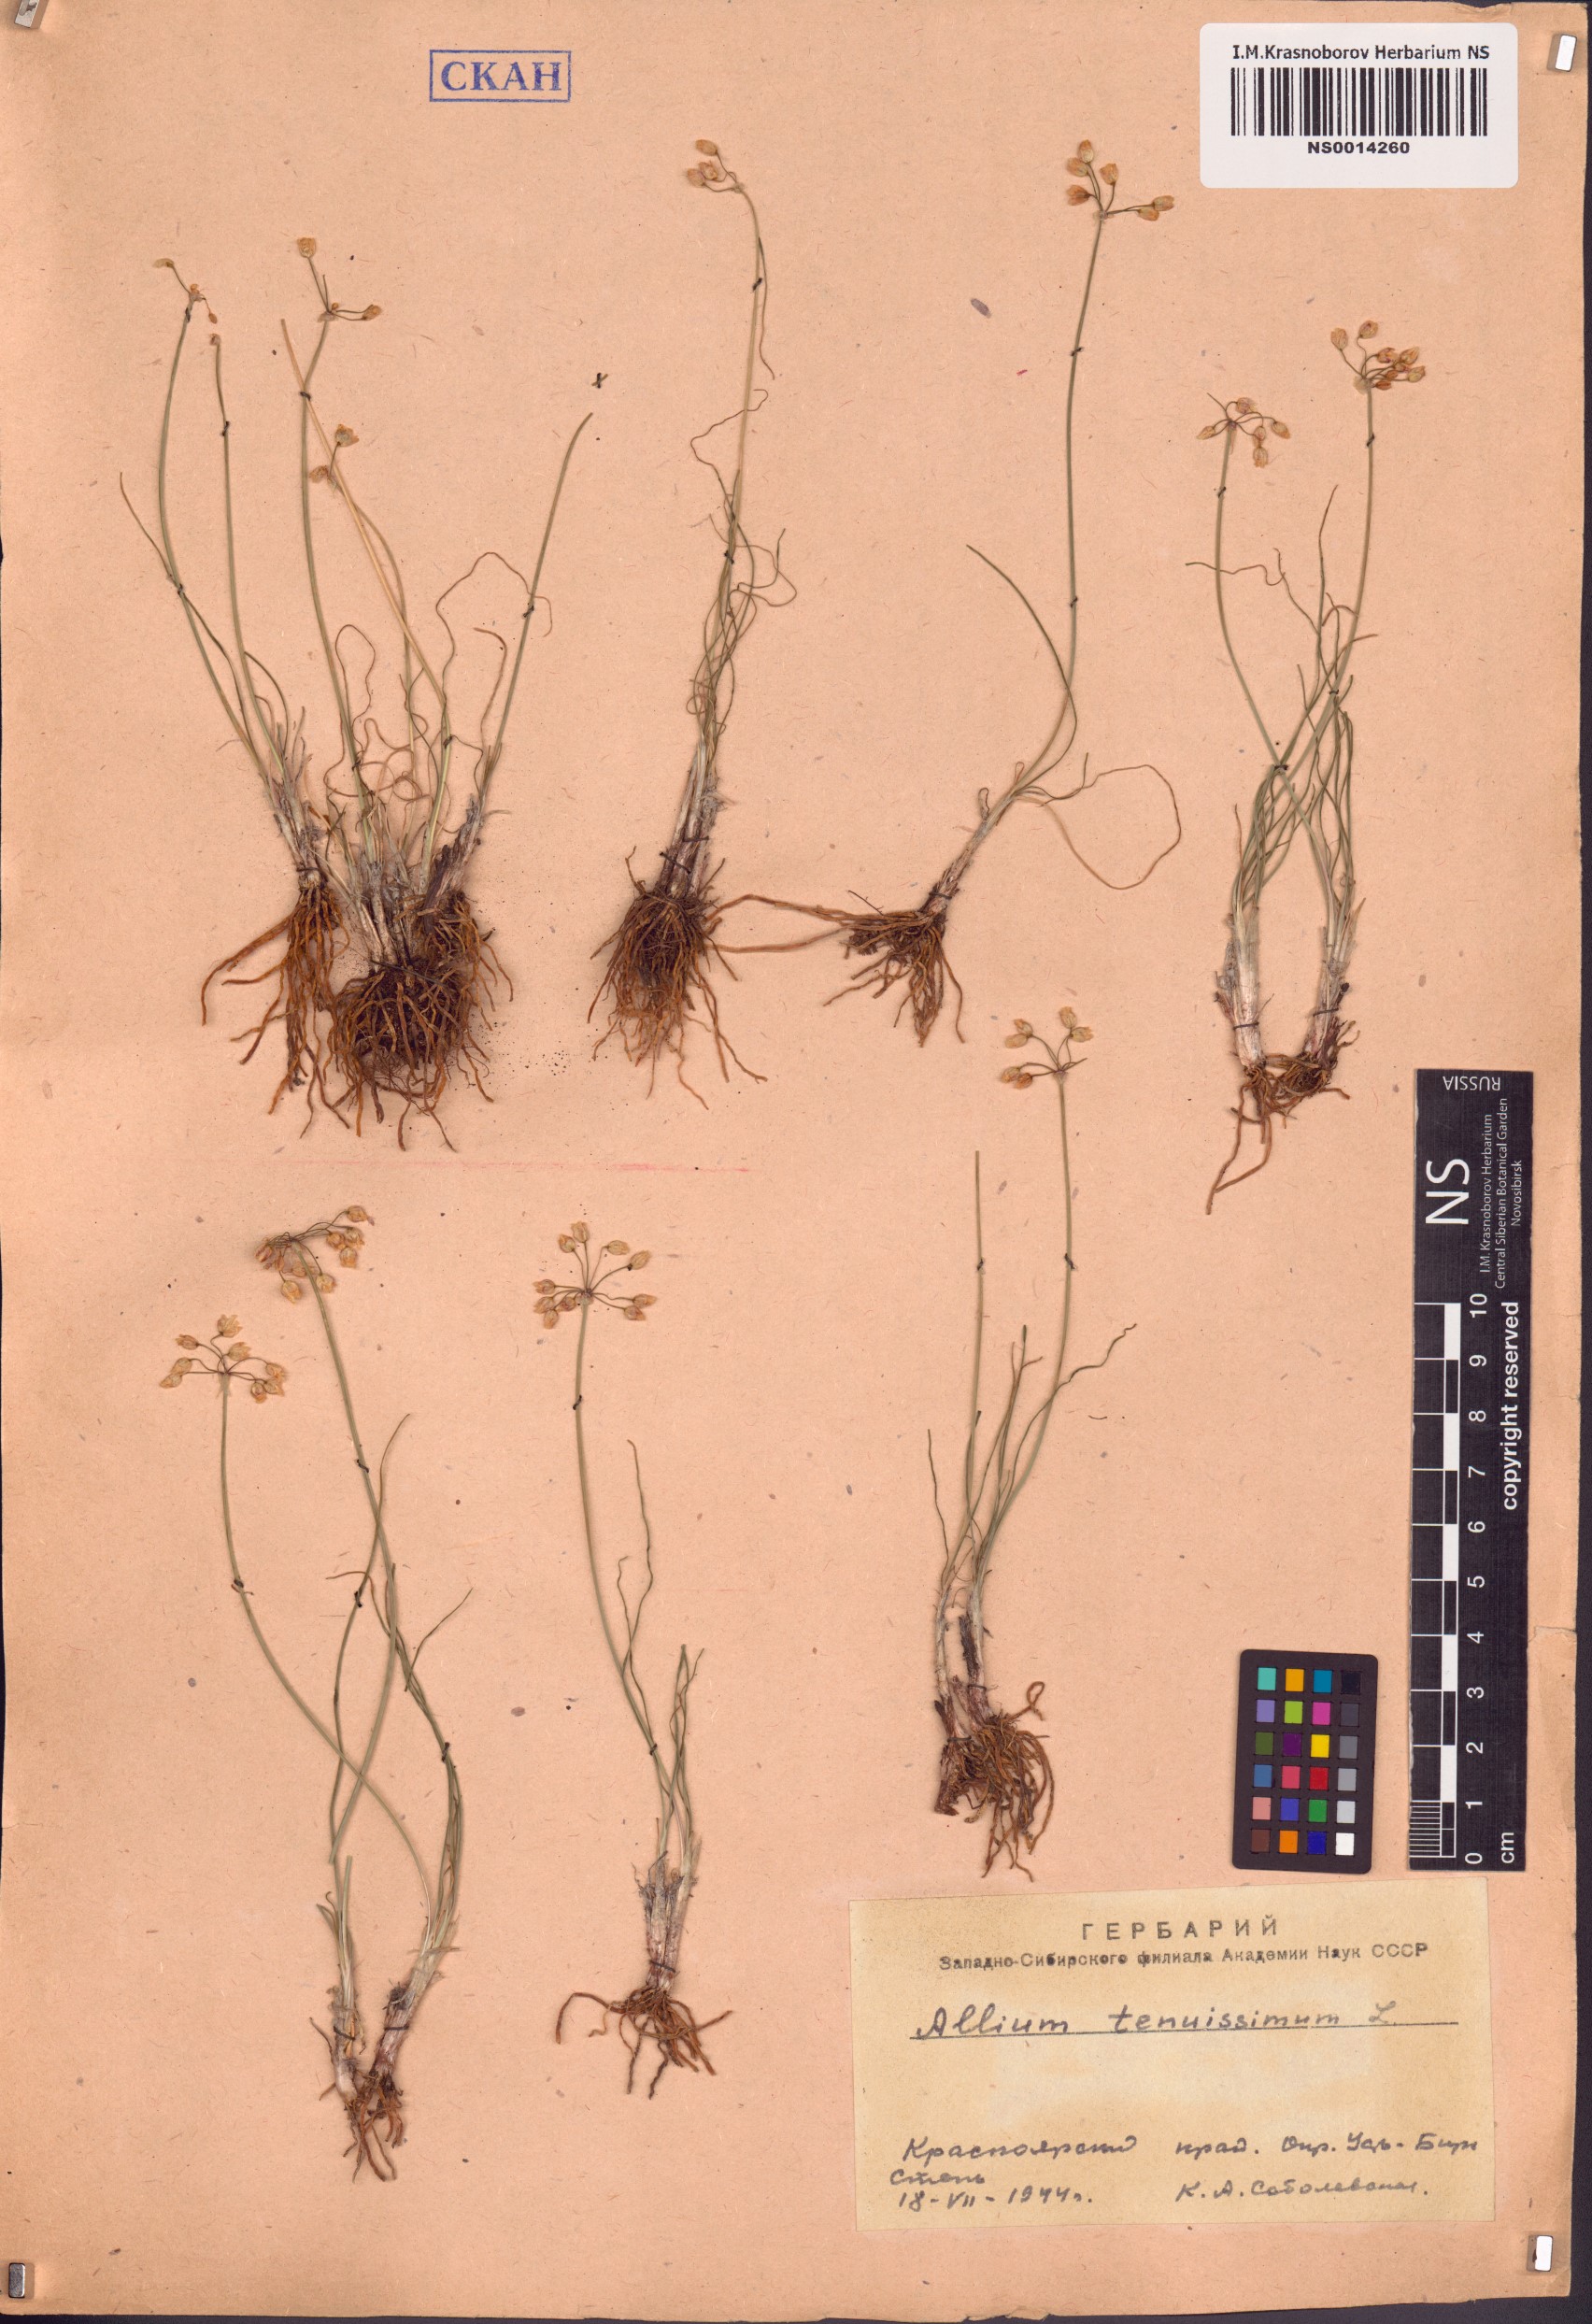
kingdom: Plantae
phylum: Tracheophyta
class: Liliopsida
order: Asparagales
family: Amaryllidaceae
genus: Allium
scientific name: Allium tenuissimum
